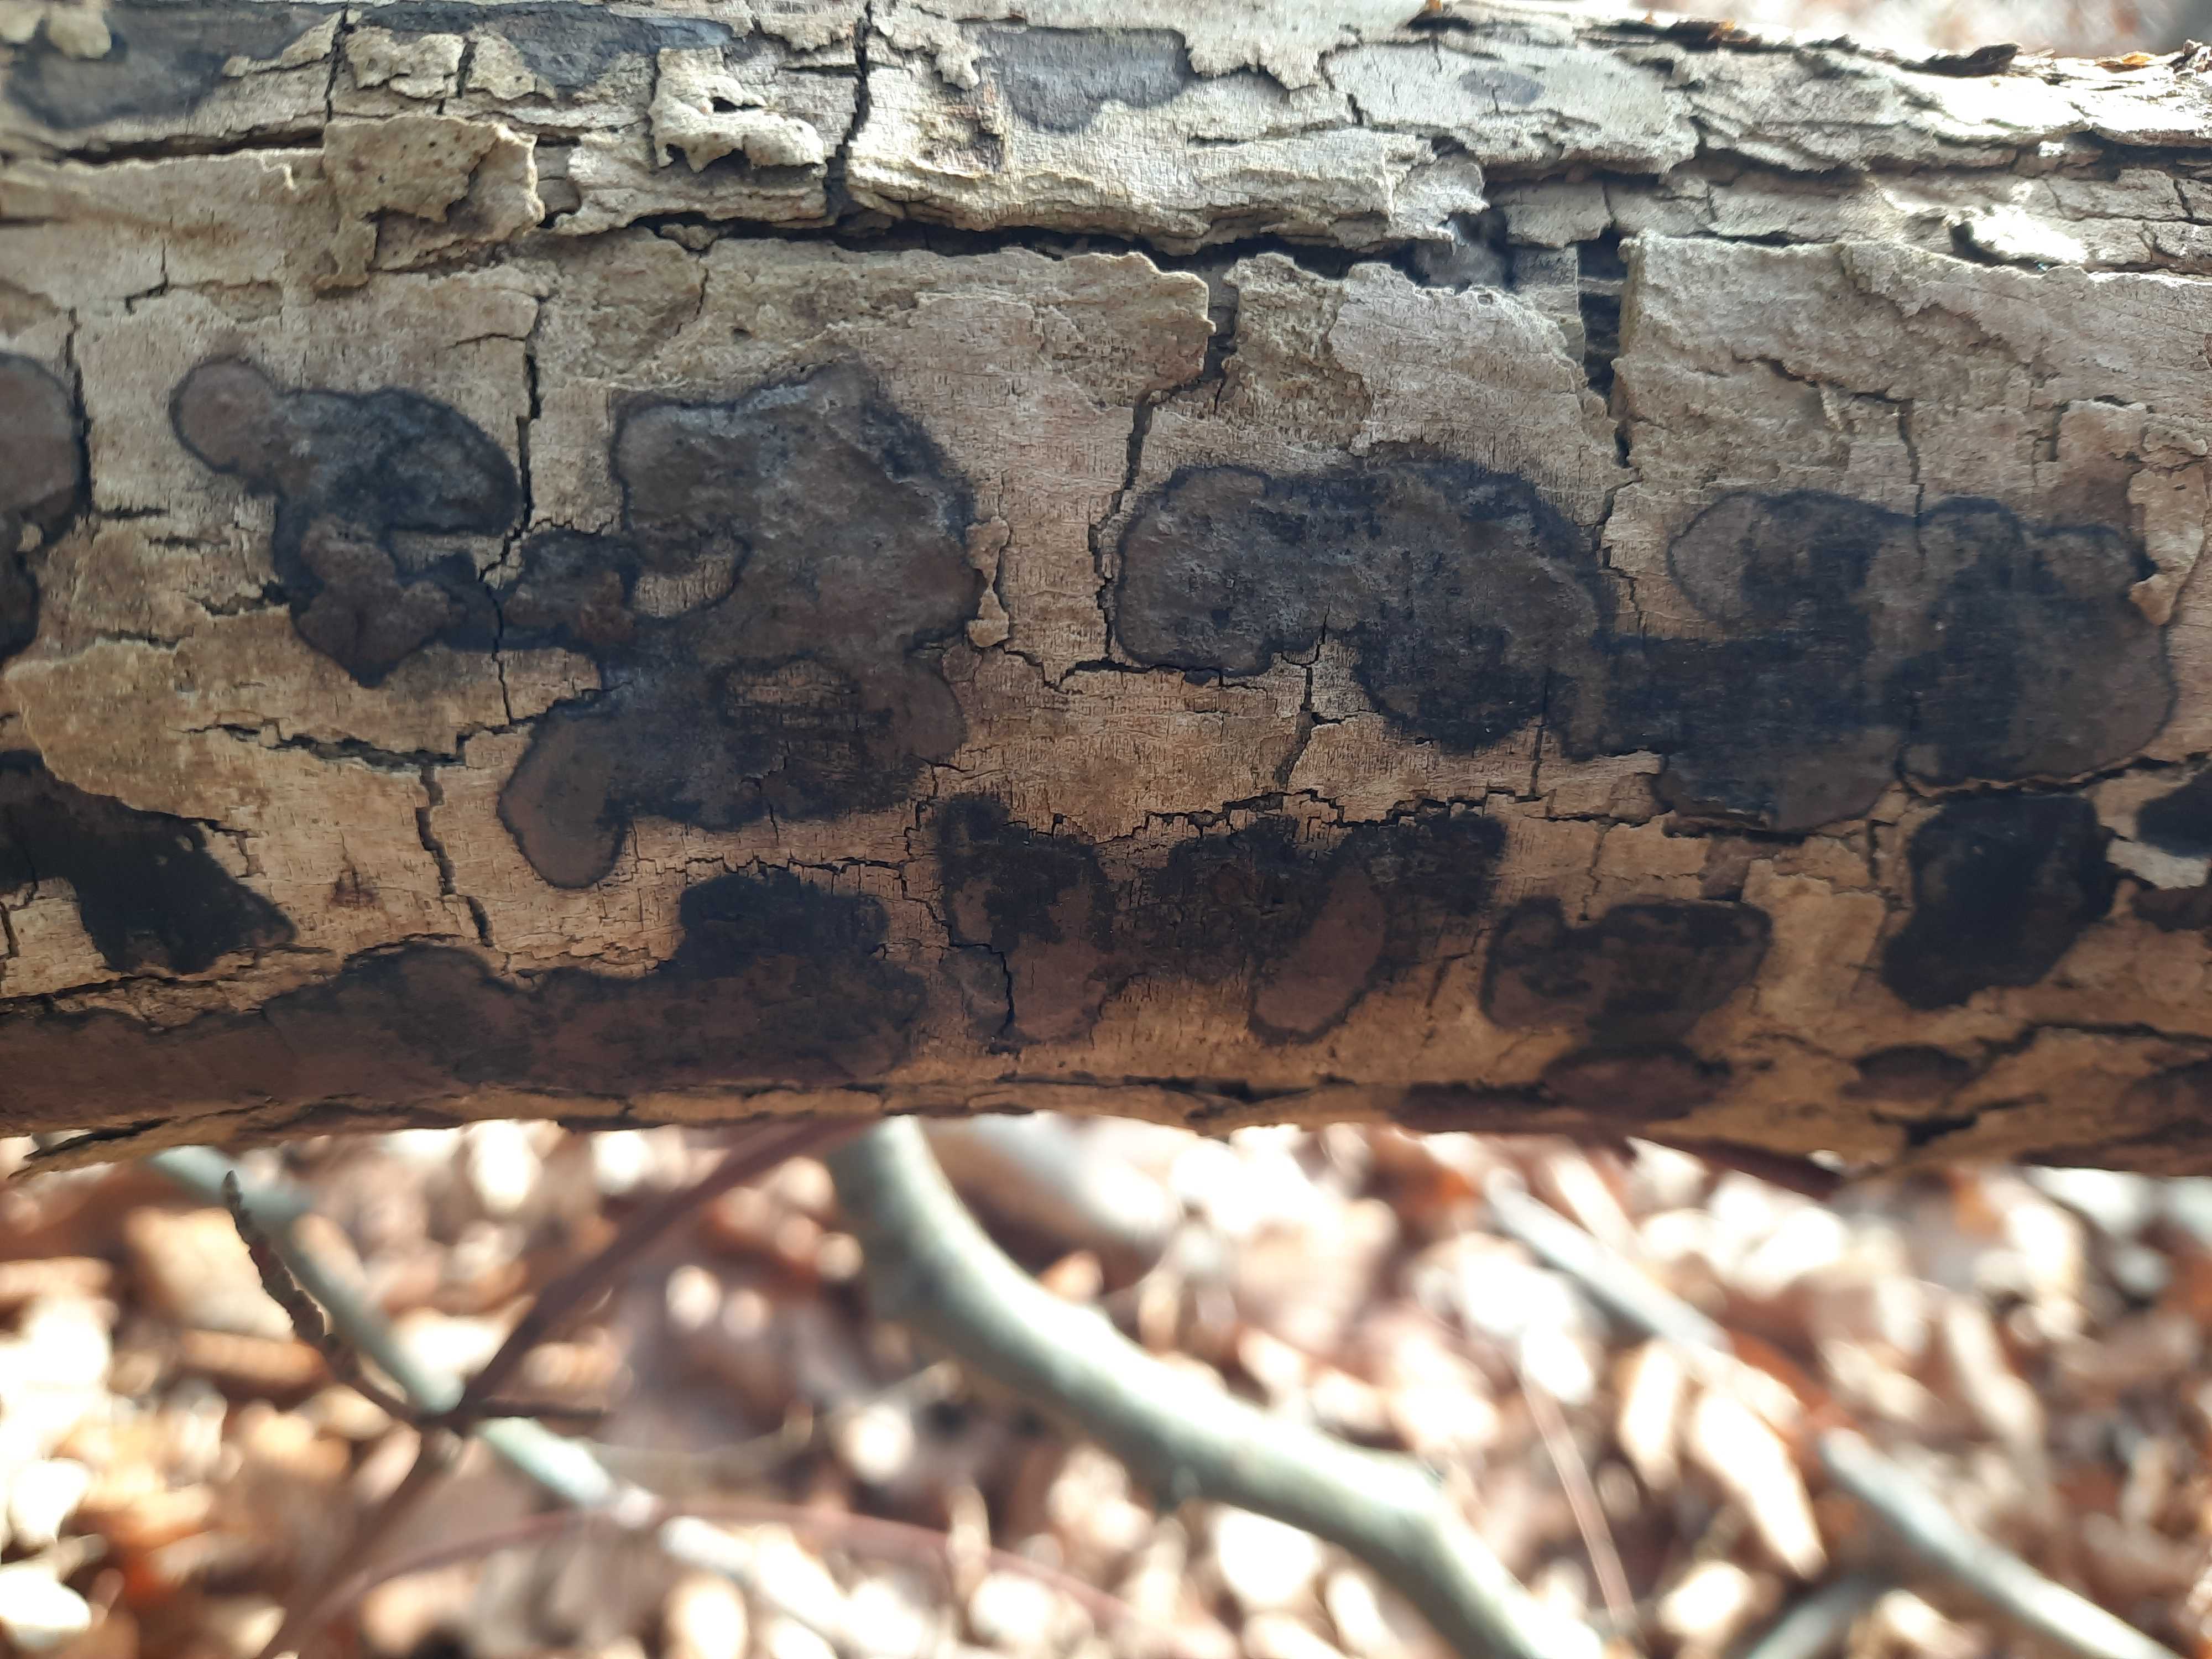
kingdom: Fungi
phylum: Ascomycota
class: Sordariomycetes
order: Xylariales
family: Hypoxylaceae
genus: Hypoxylon
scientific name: Hypoxylon petriniae
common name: nedsænket kulbær
